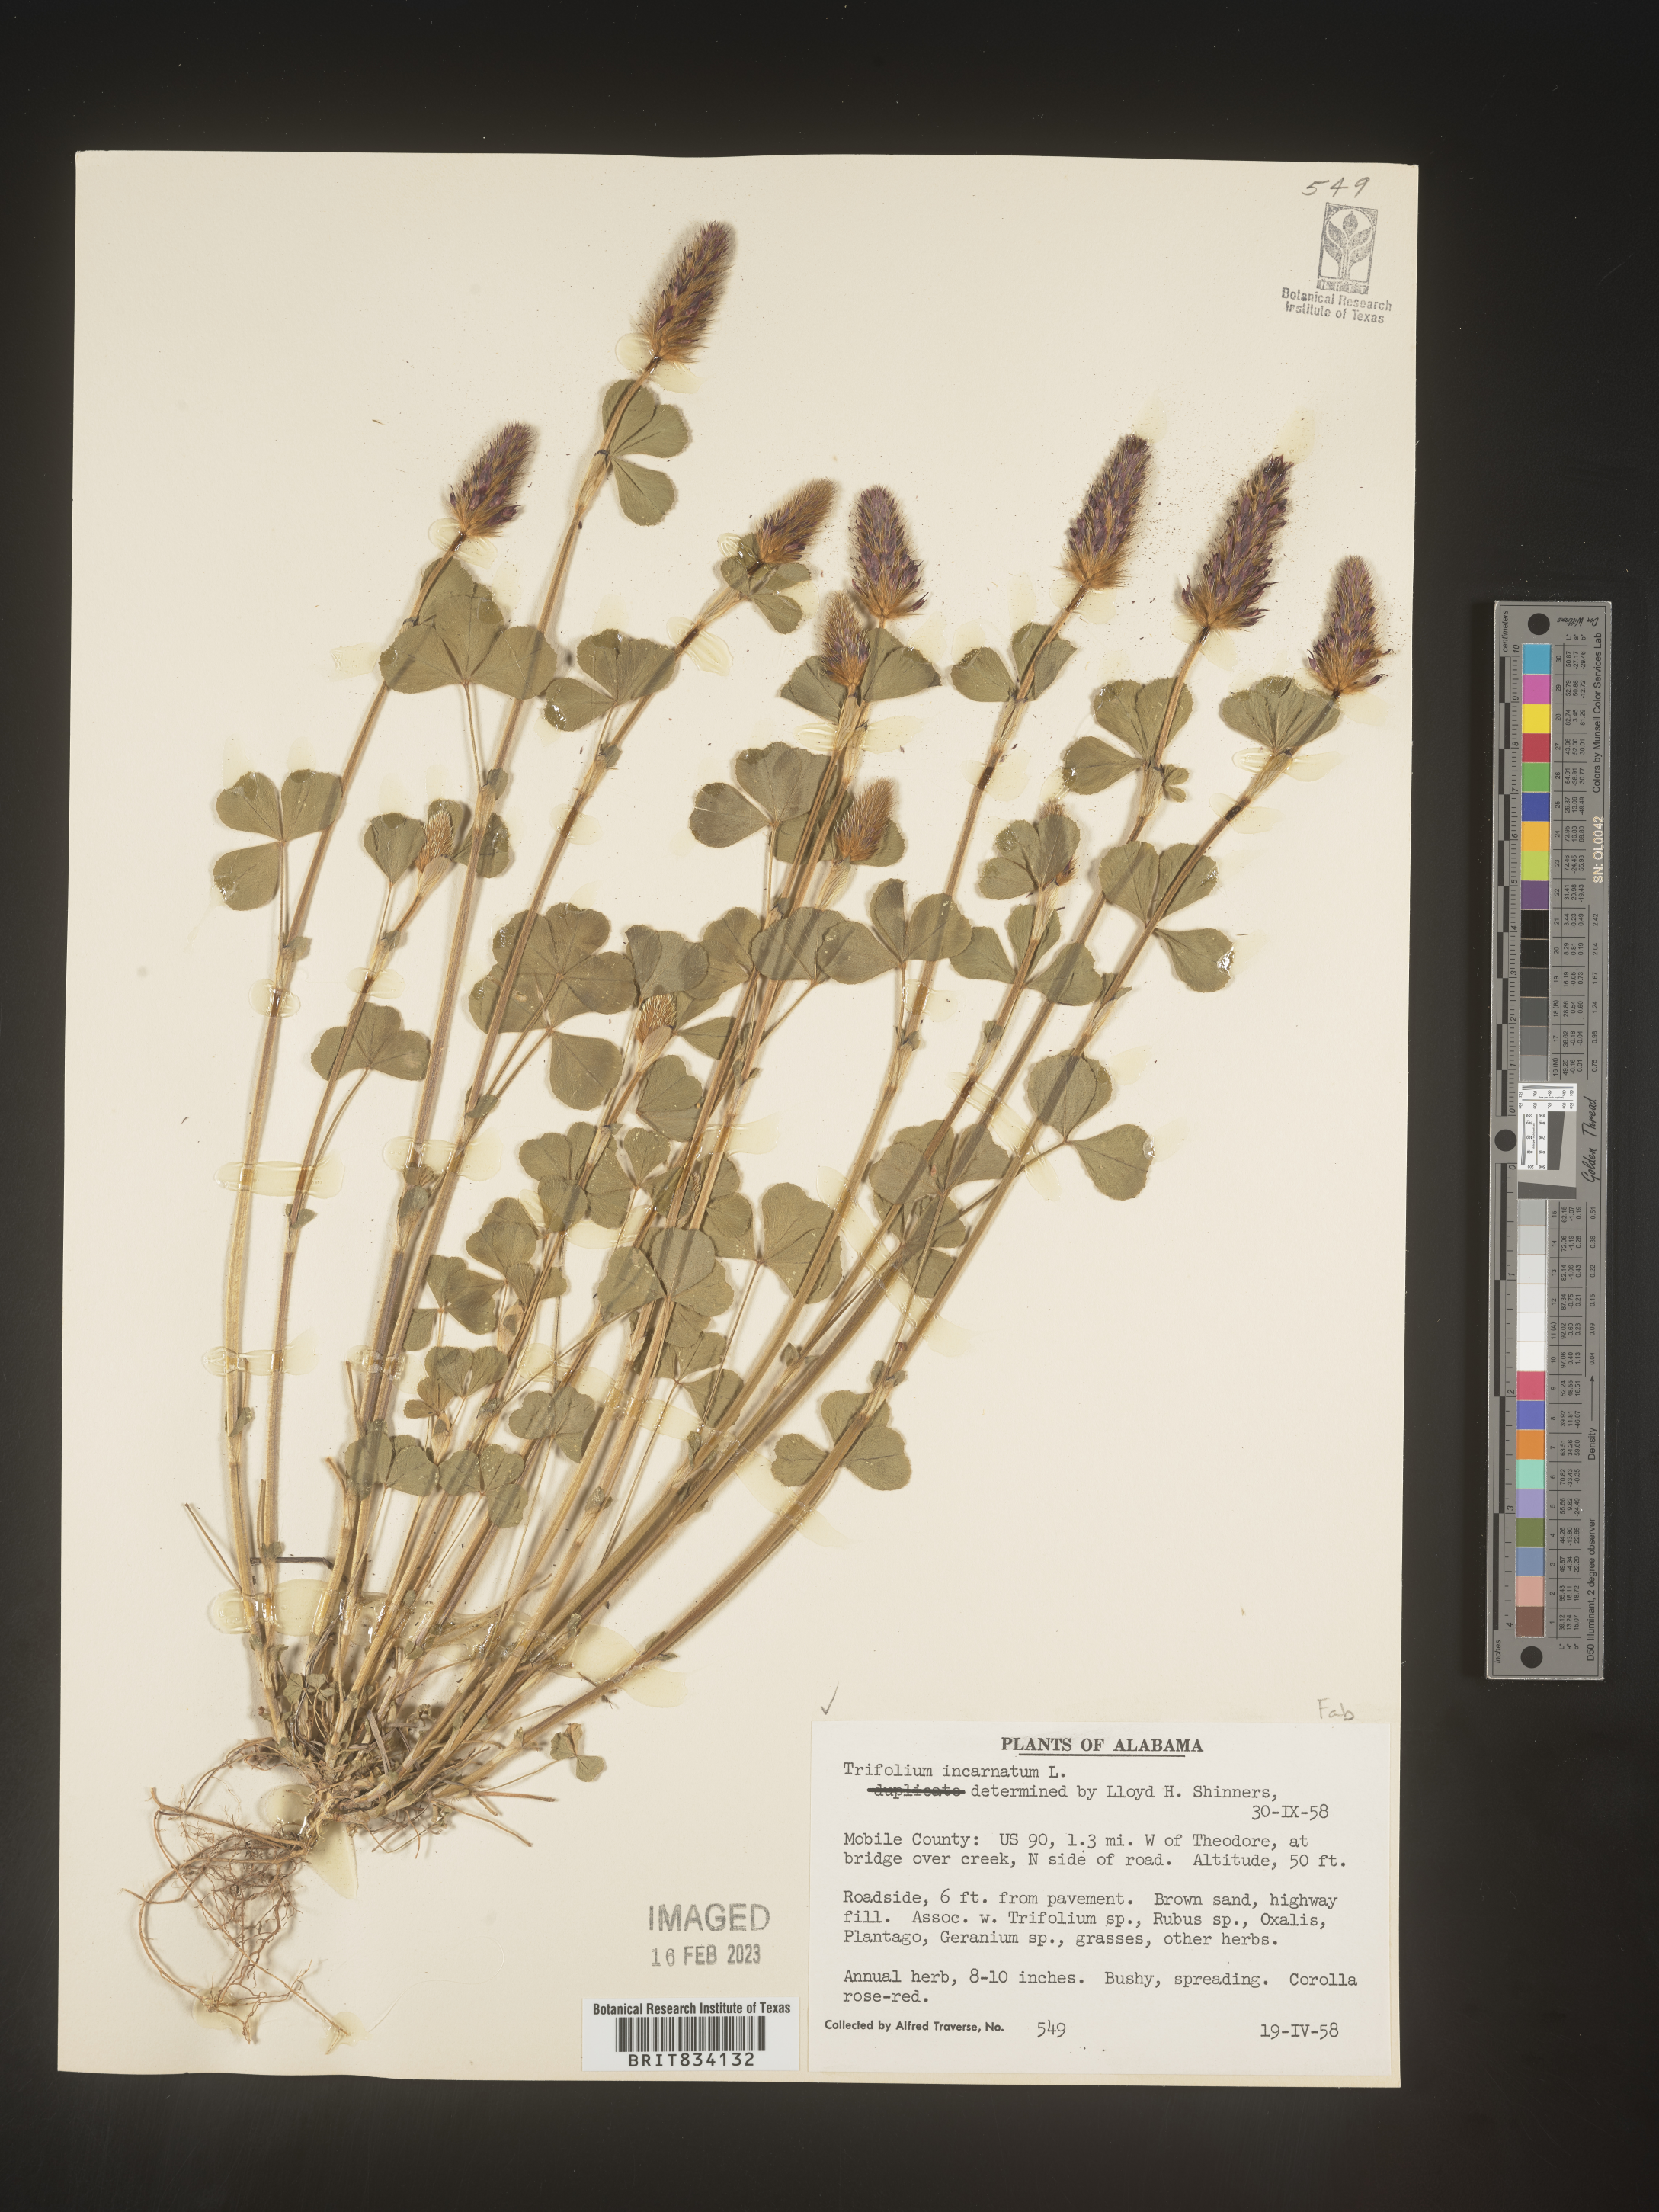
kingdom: Plantae
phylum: Tracheophyta
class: Magnoliopsida
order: Fabales
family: Fabaceae
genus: Trifolium
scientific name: Trifolium incarnatum
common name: Crimson clover
